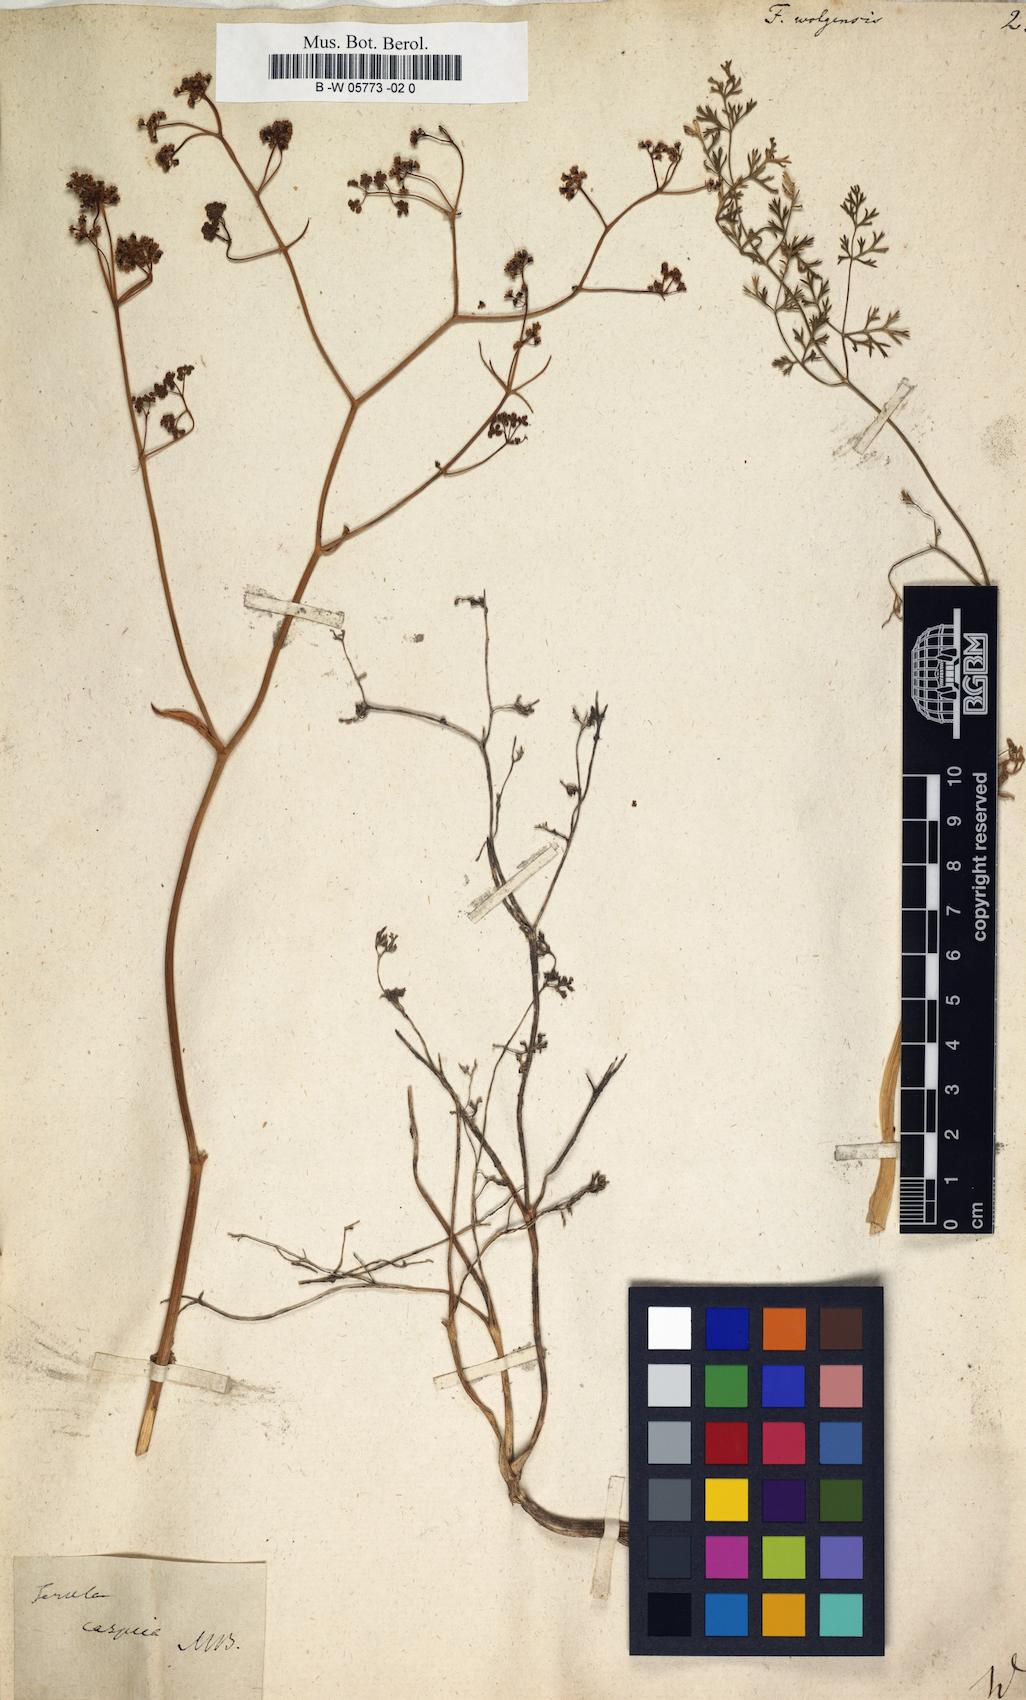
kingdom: Plantae
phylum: Tracheophyta
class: Magnoliopsida
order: Apiales
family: Apiaceae
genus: Ferula
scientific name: Ferula nuda
